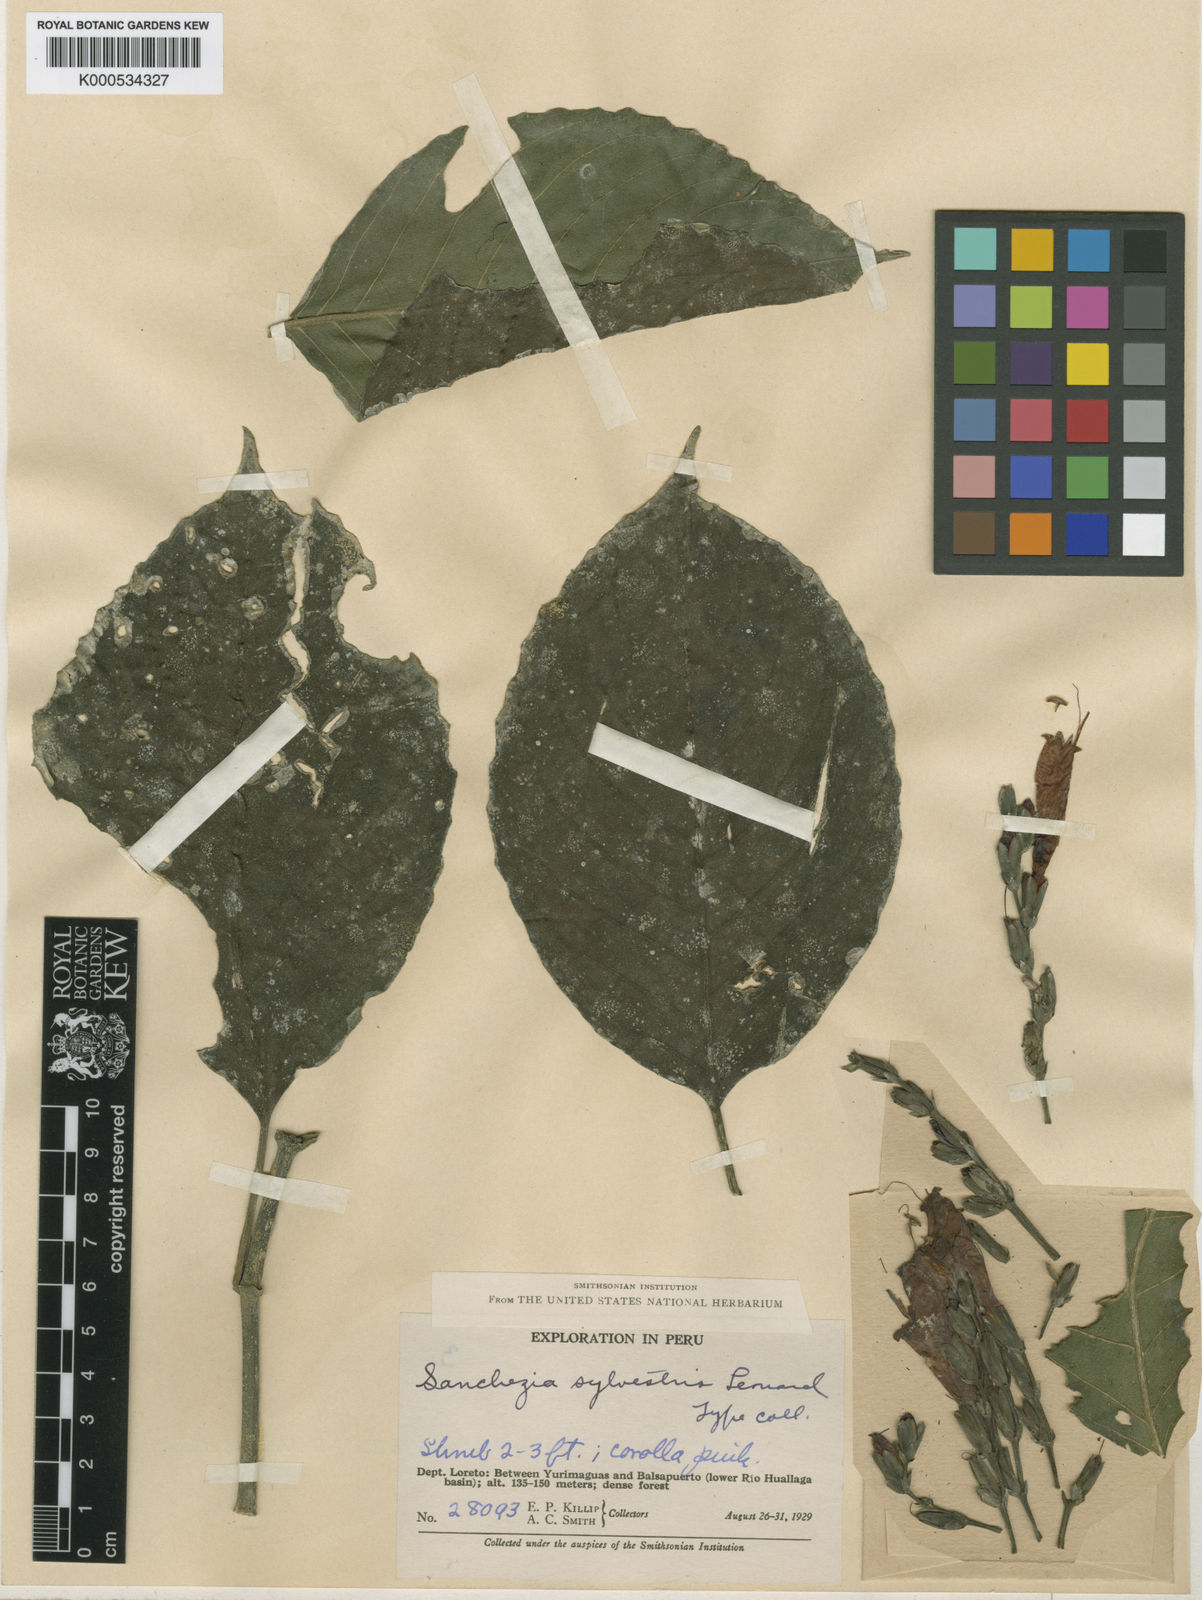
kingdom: Plantae
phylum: Tracheophyta
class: Magnoliopsida
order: Lamiales
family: Acanthaceae
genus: Sanchezia
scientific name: Sanchezia sylvestris
